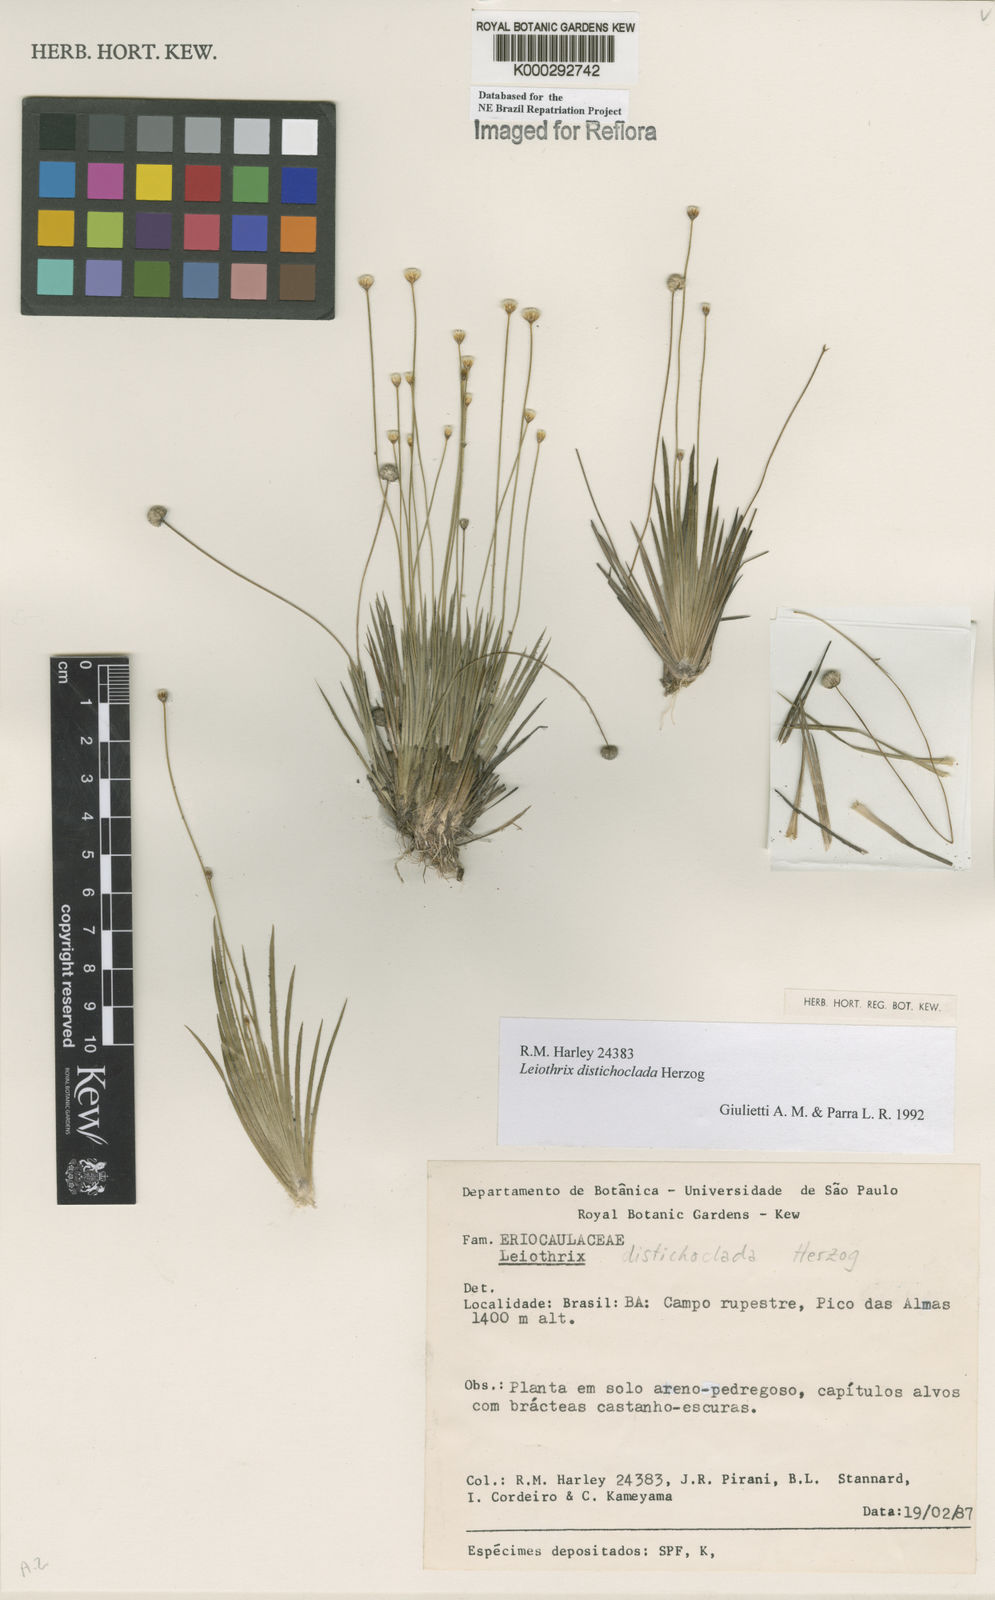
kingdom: Plantae
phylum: Tracheophyta
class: Liliopsida
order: Poales
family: Eriocaulaceae
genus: Leiothrix
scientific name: Leiothrix distichoclada
